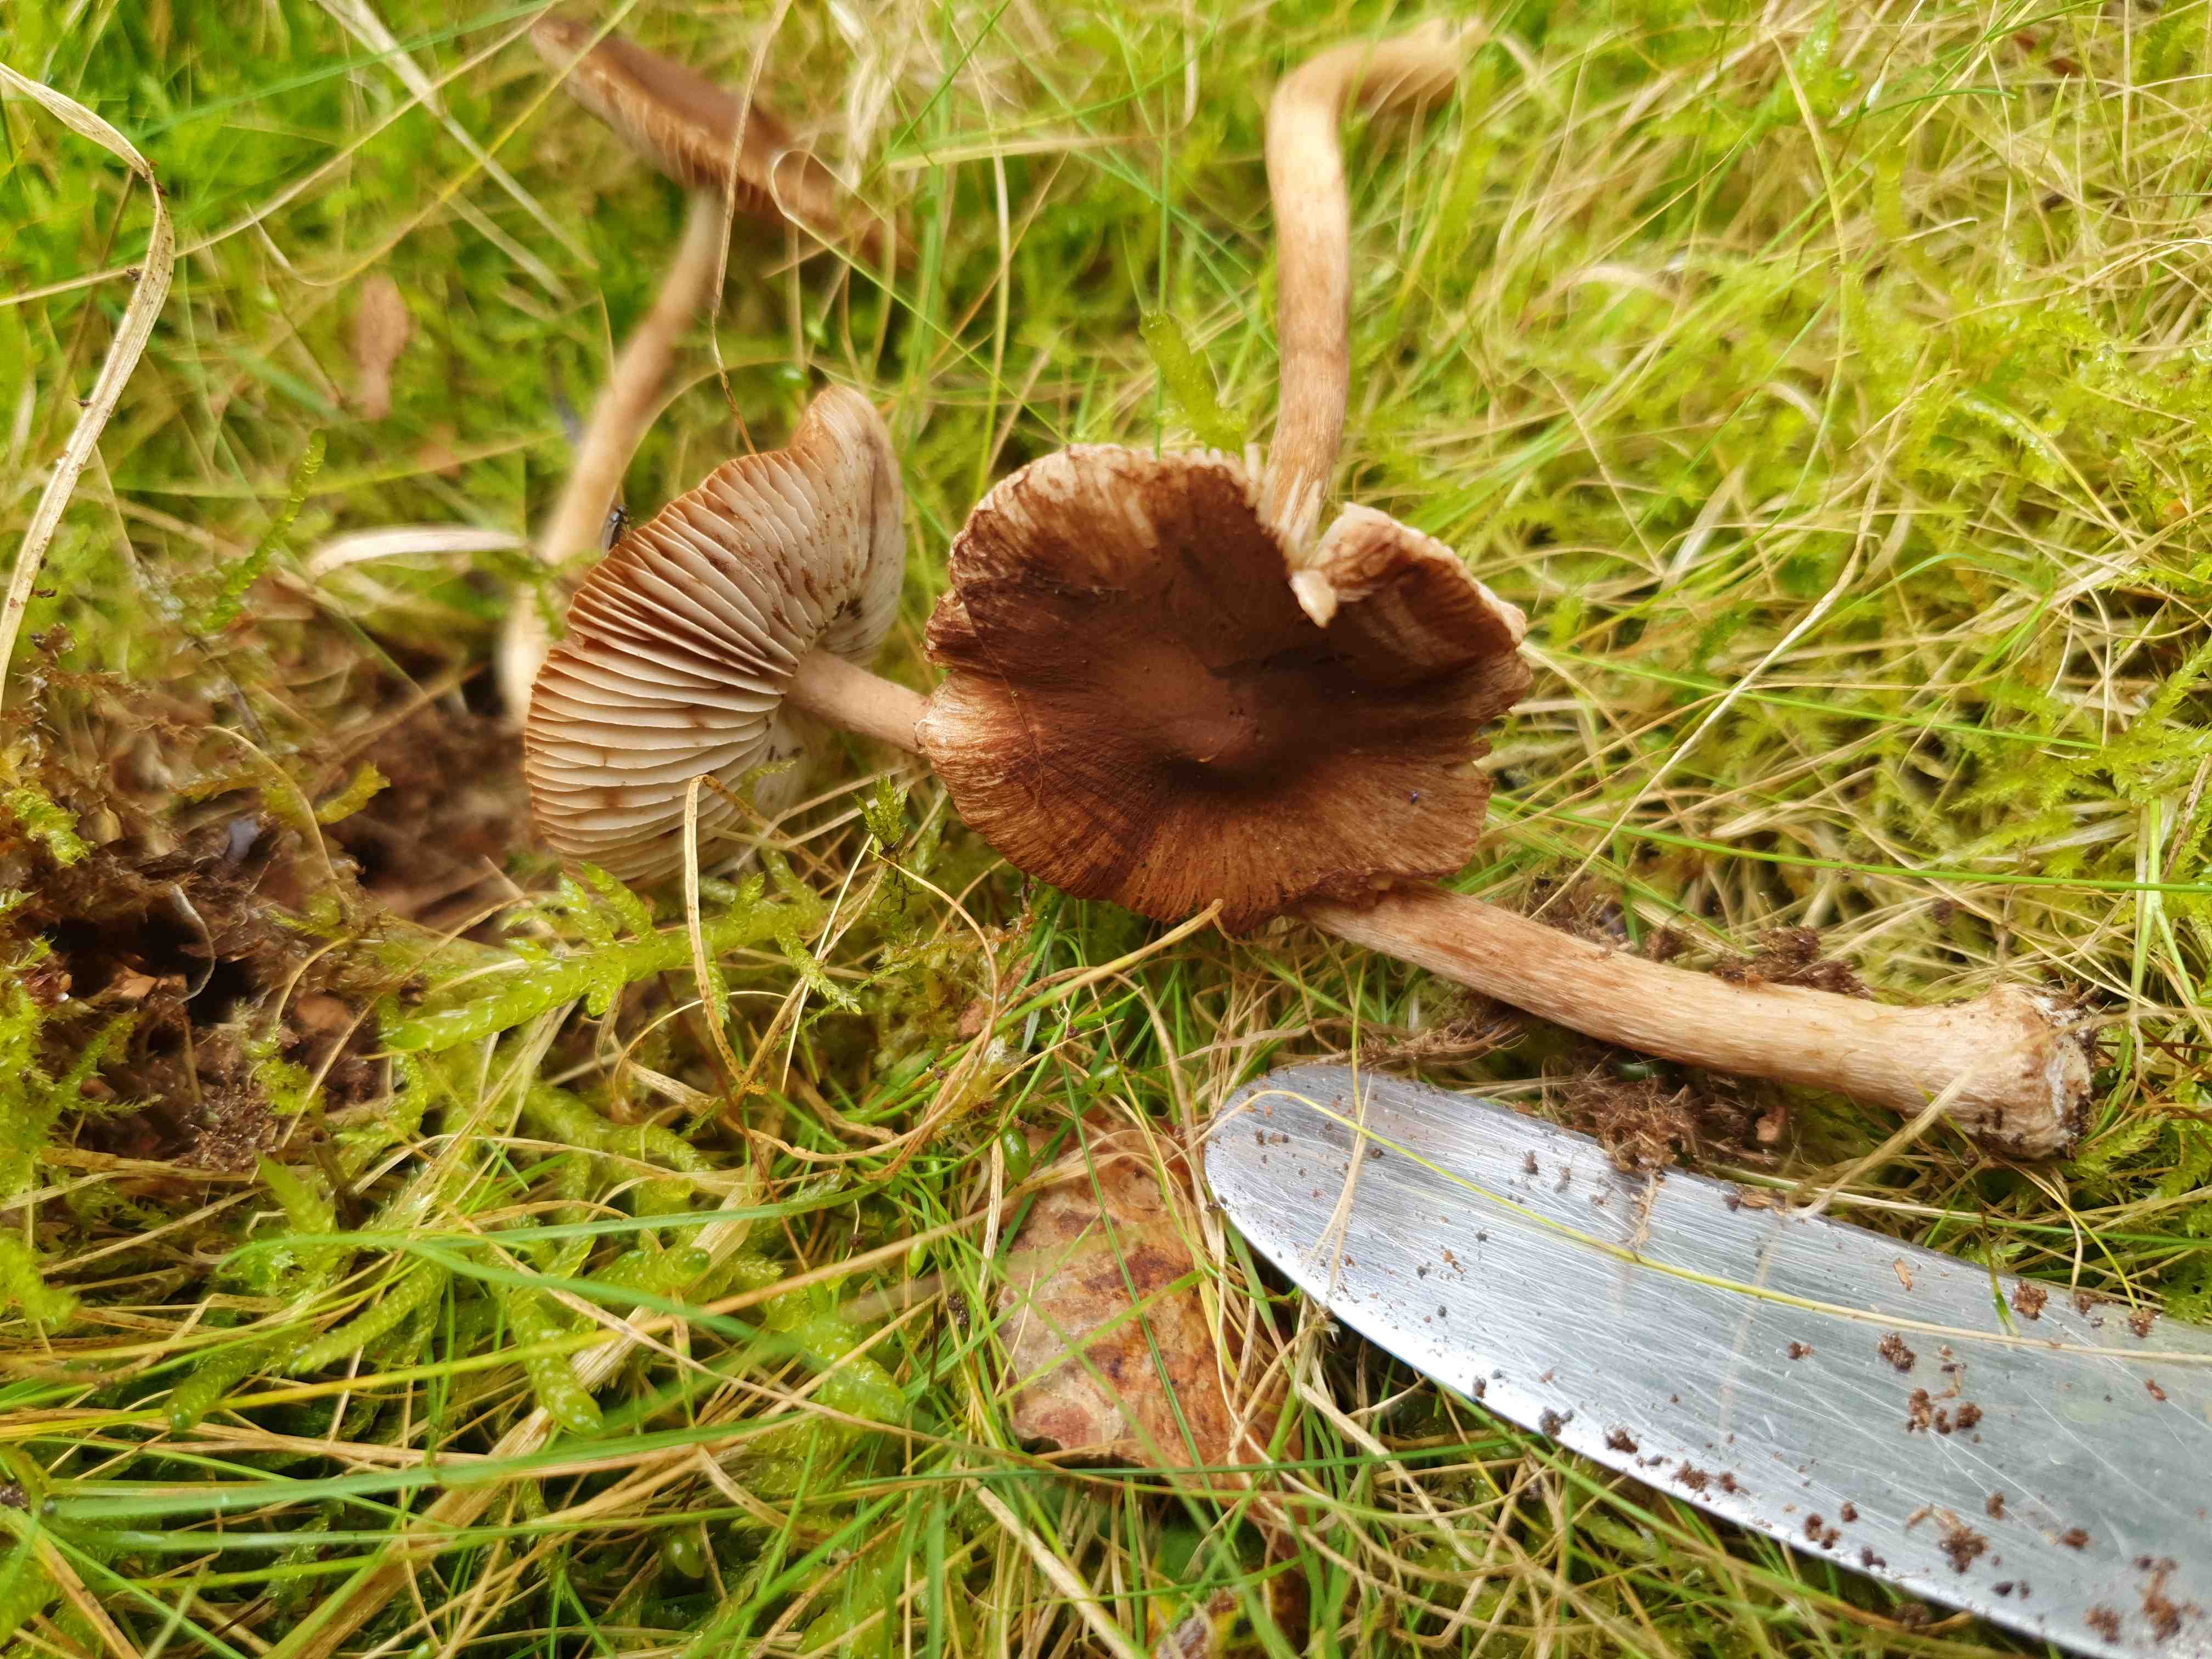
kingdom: Fungi
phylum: Basidiomycota
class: Agaricomycetes
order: Agaricales
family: Inocybaceae
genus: Inocybe
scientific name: Inocybe
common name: trævlhat
